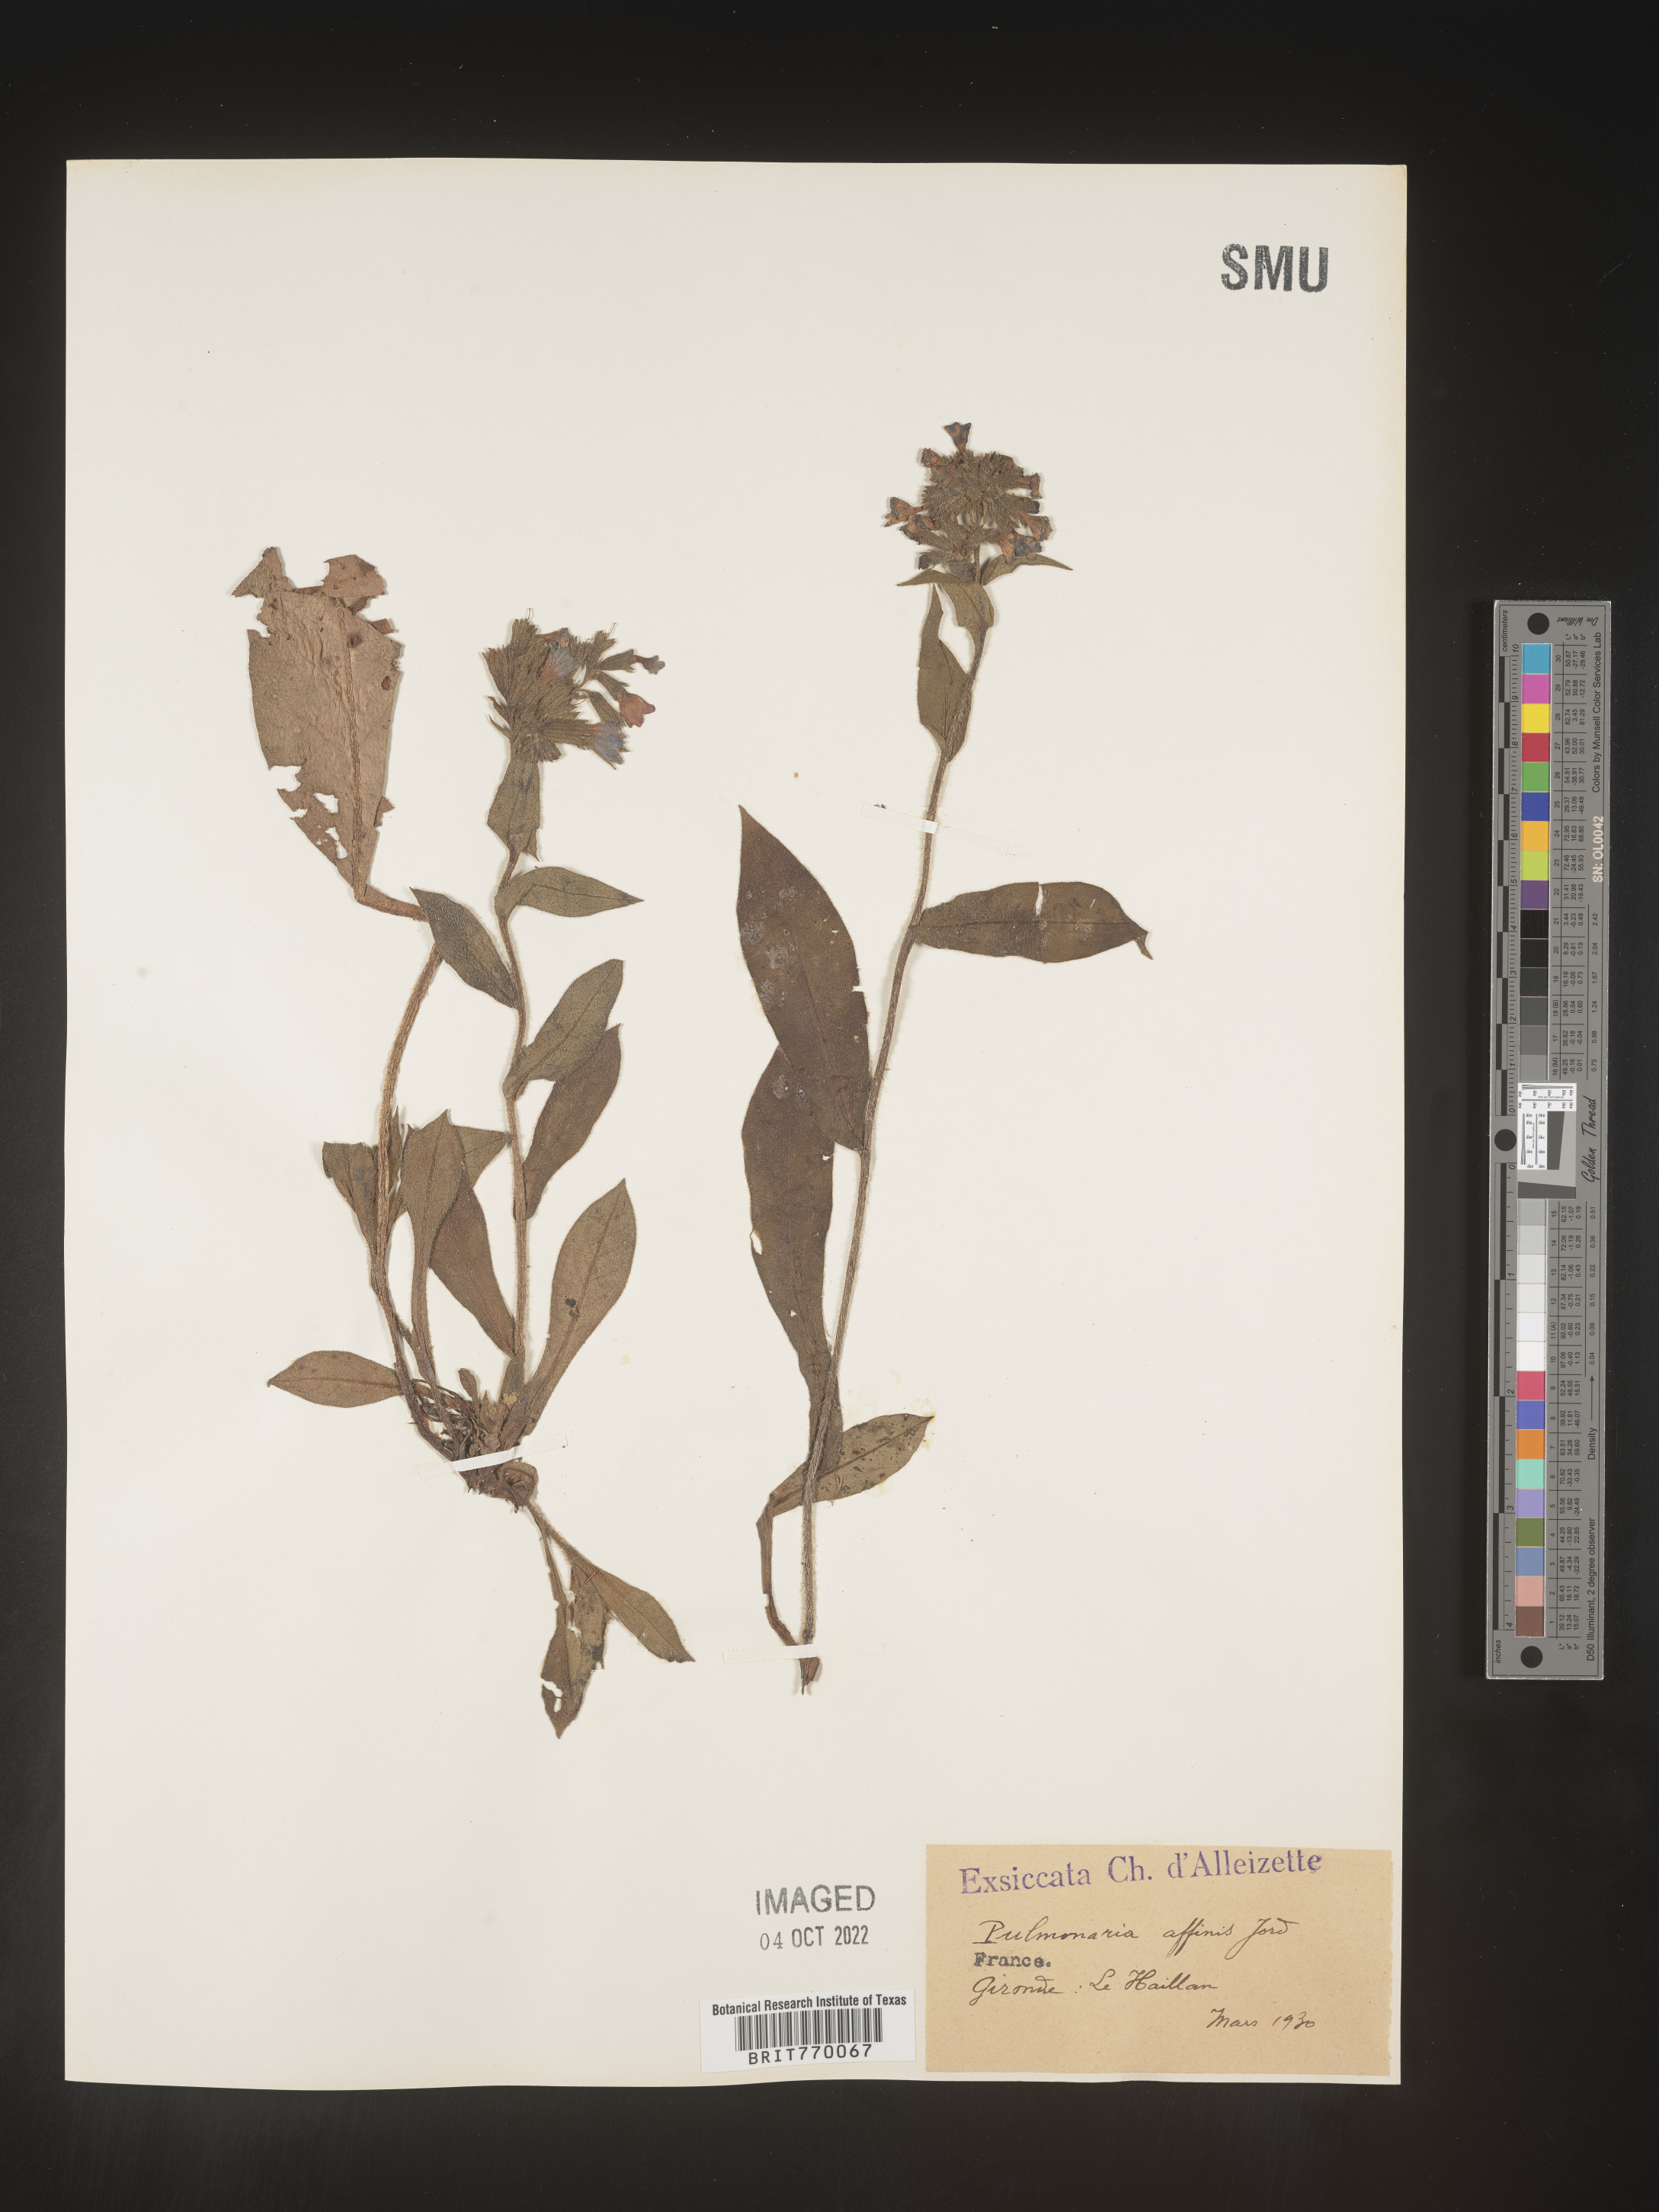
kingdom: Plantae
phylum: Tracheophyta
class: Magnoliopsida
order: Boraginales
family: Boraginaceae
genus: Pulmonaria
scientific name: Pulmonaria
